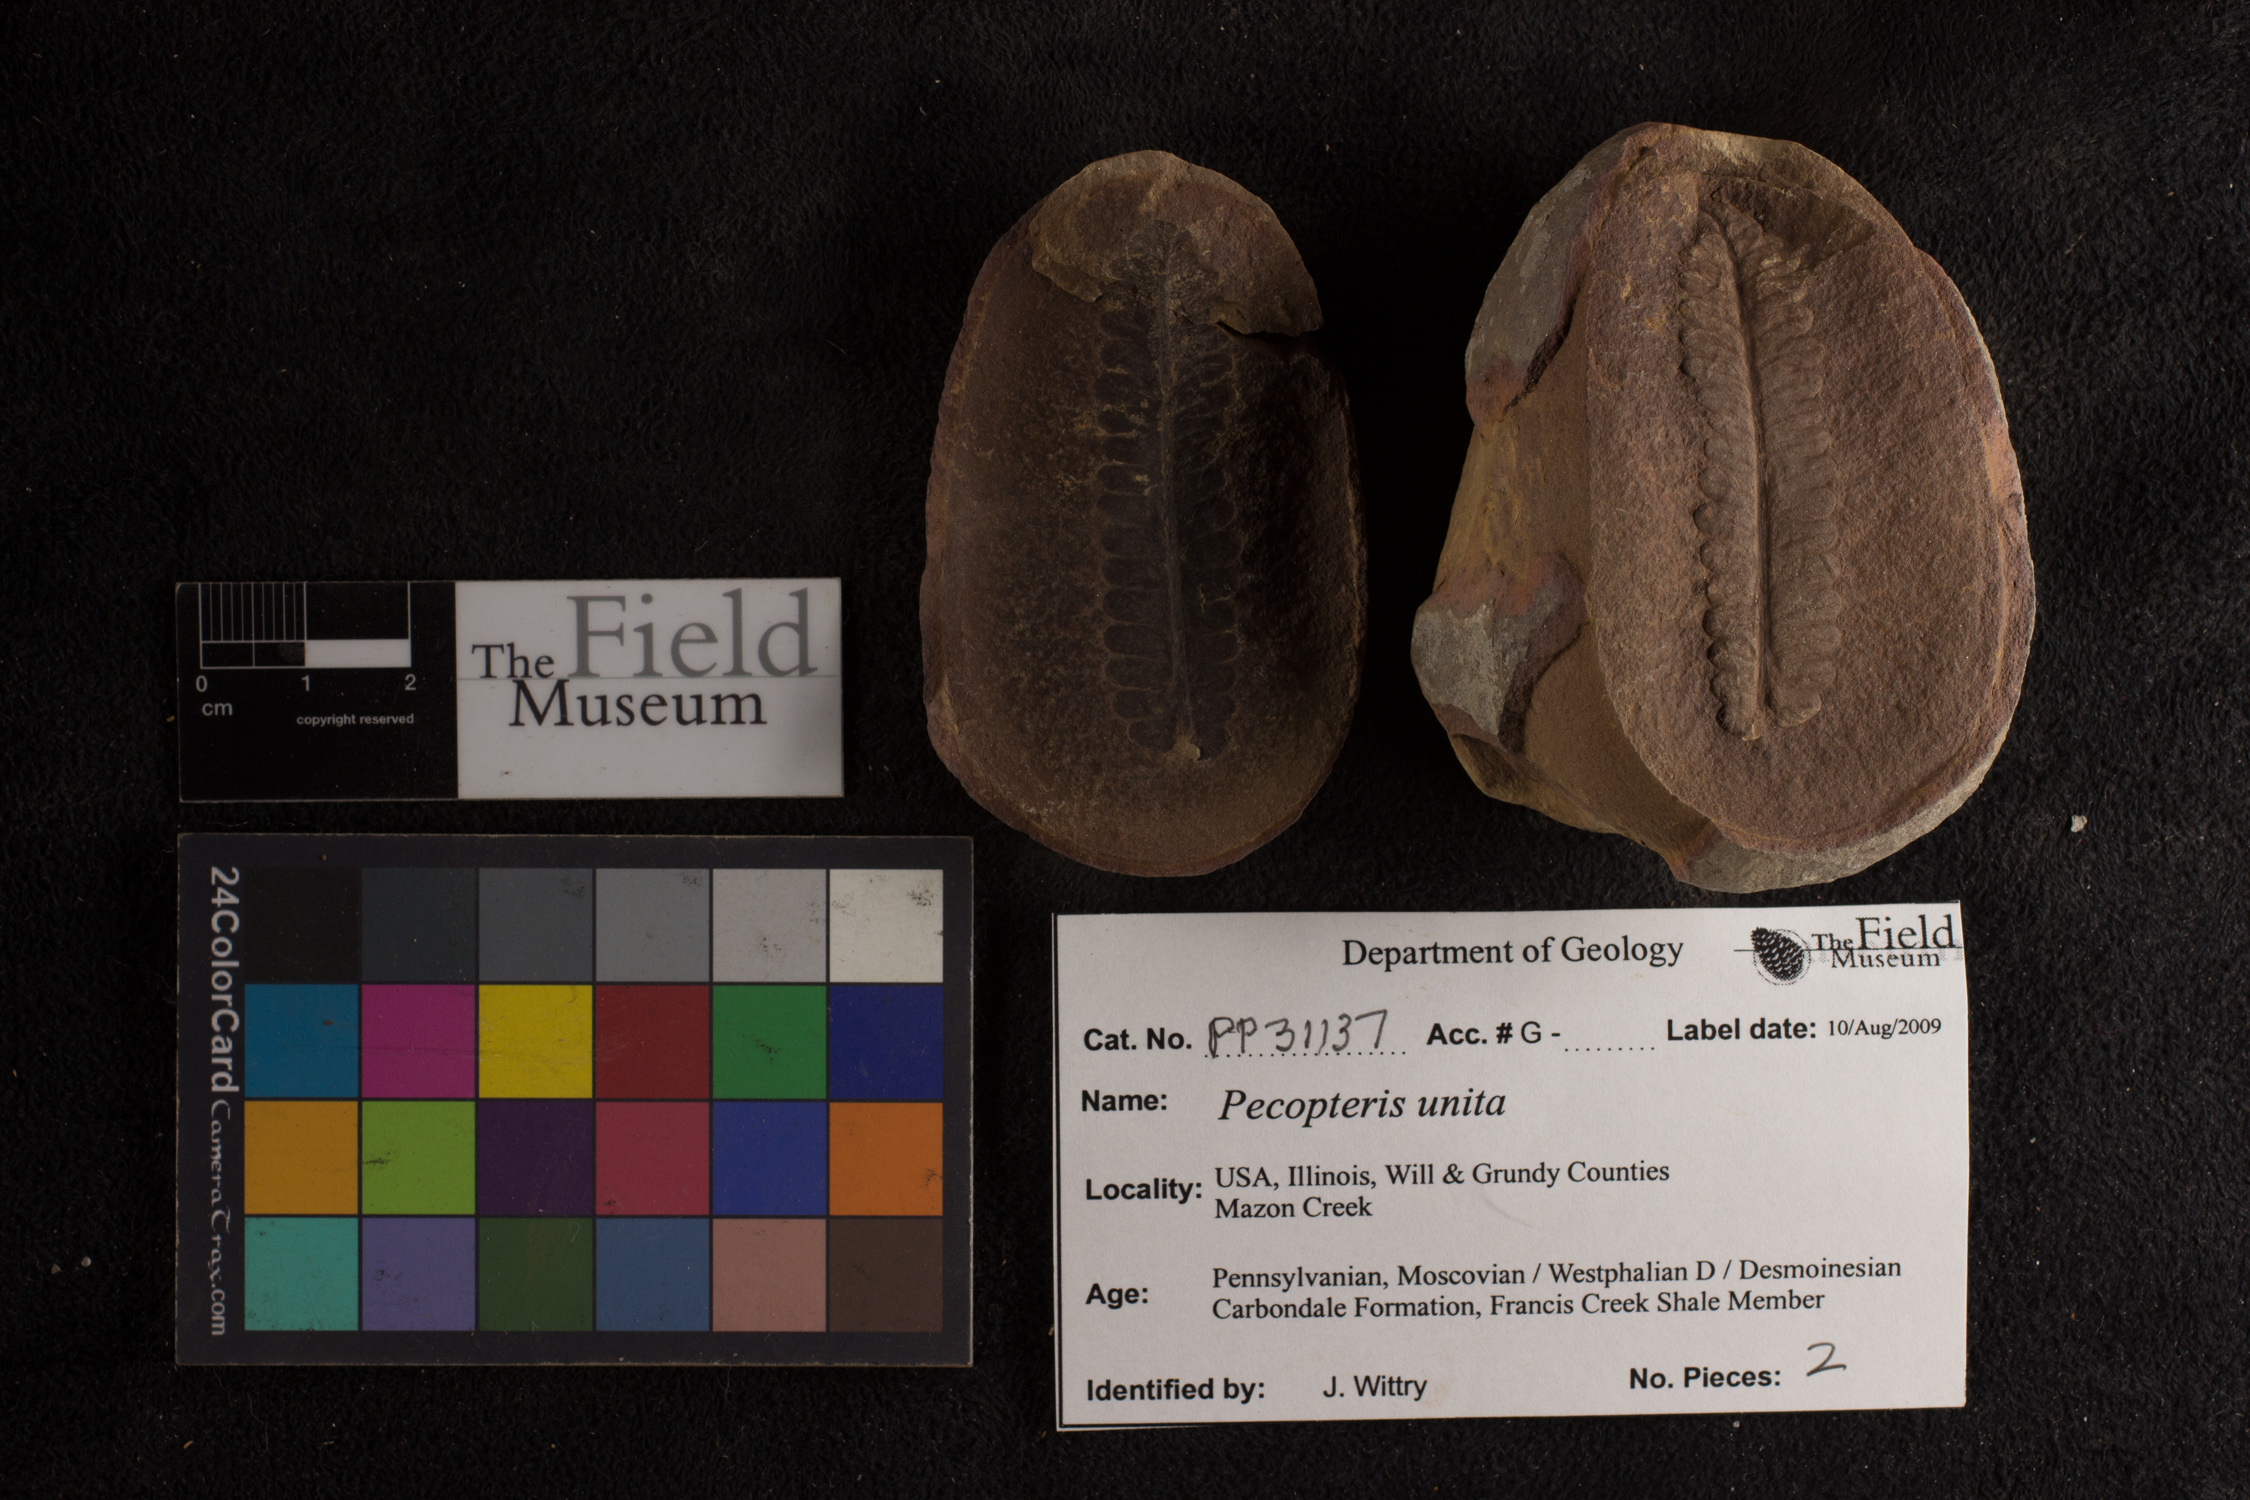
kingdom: Plantae
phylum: Tracheophyta
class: Polypodiopsida
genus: Diplazites
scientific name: Diplazites
